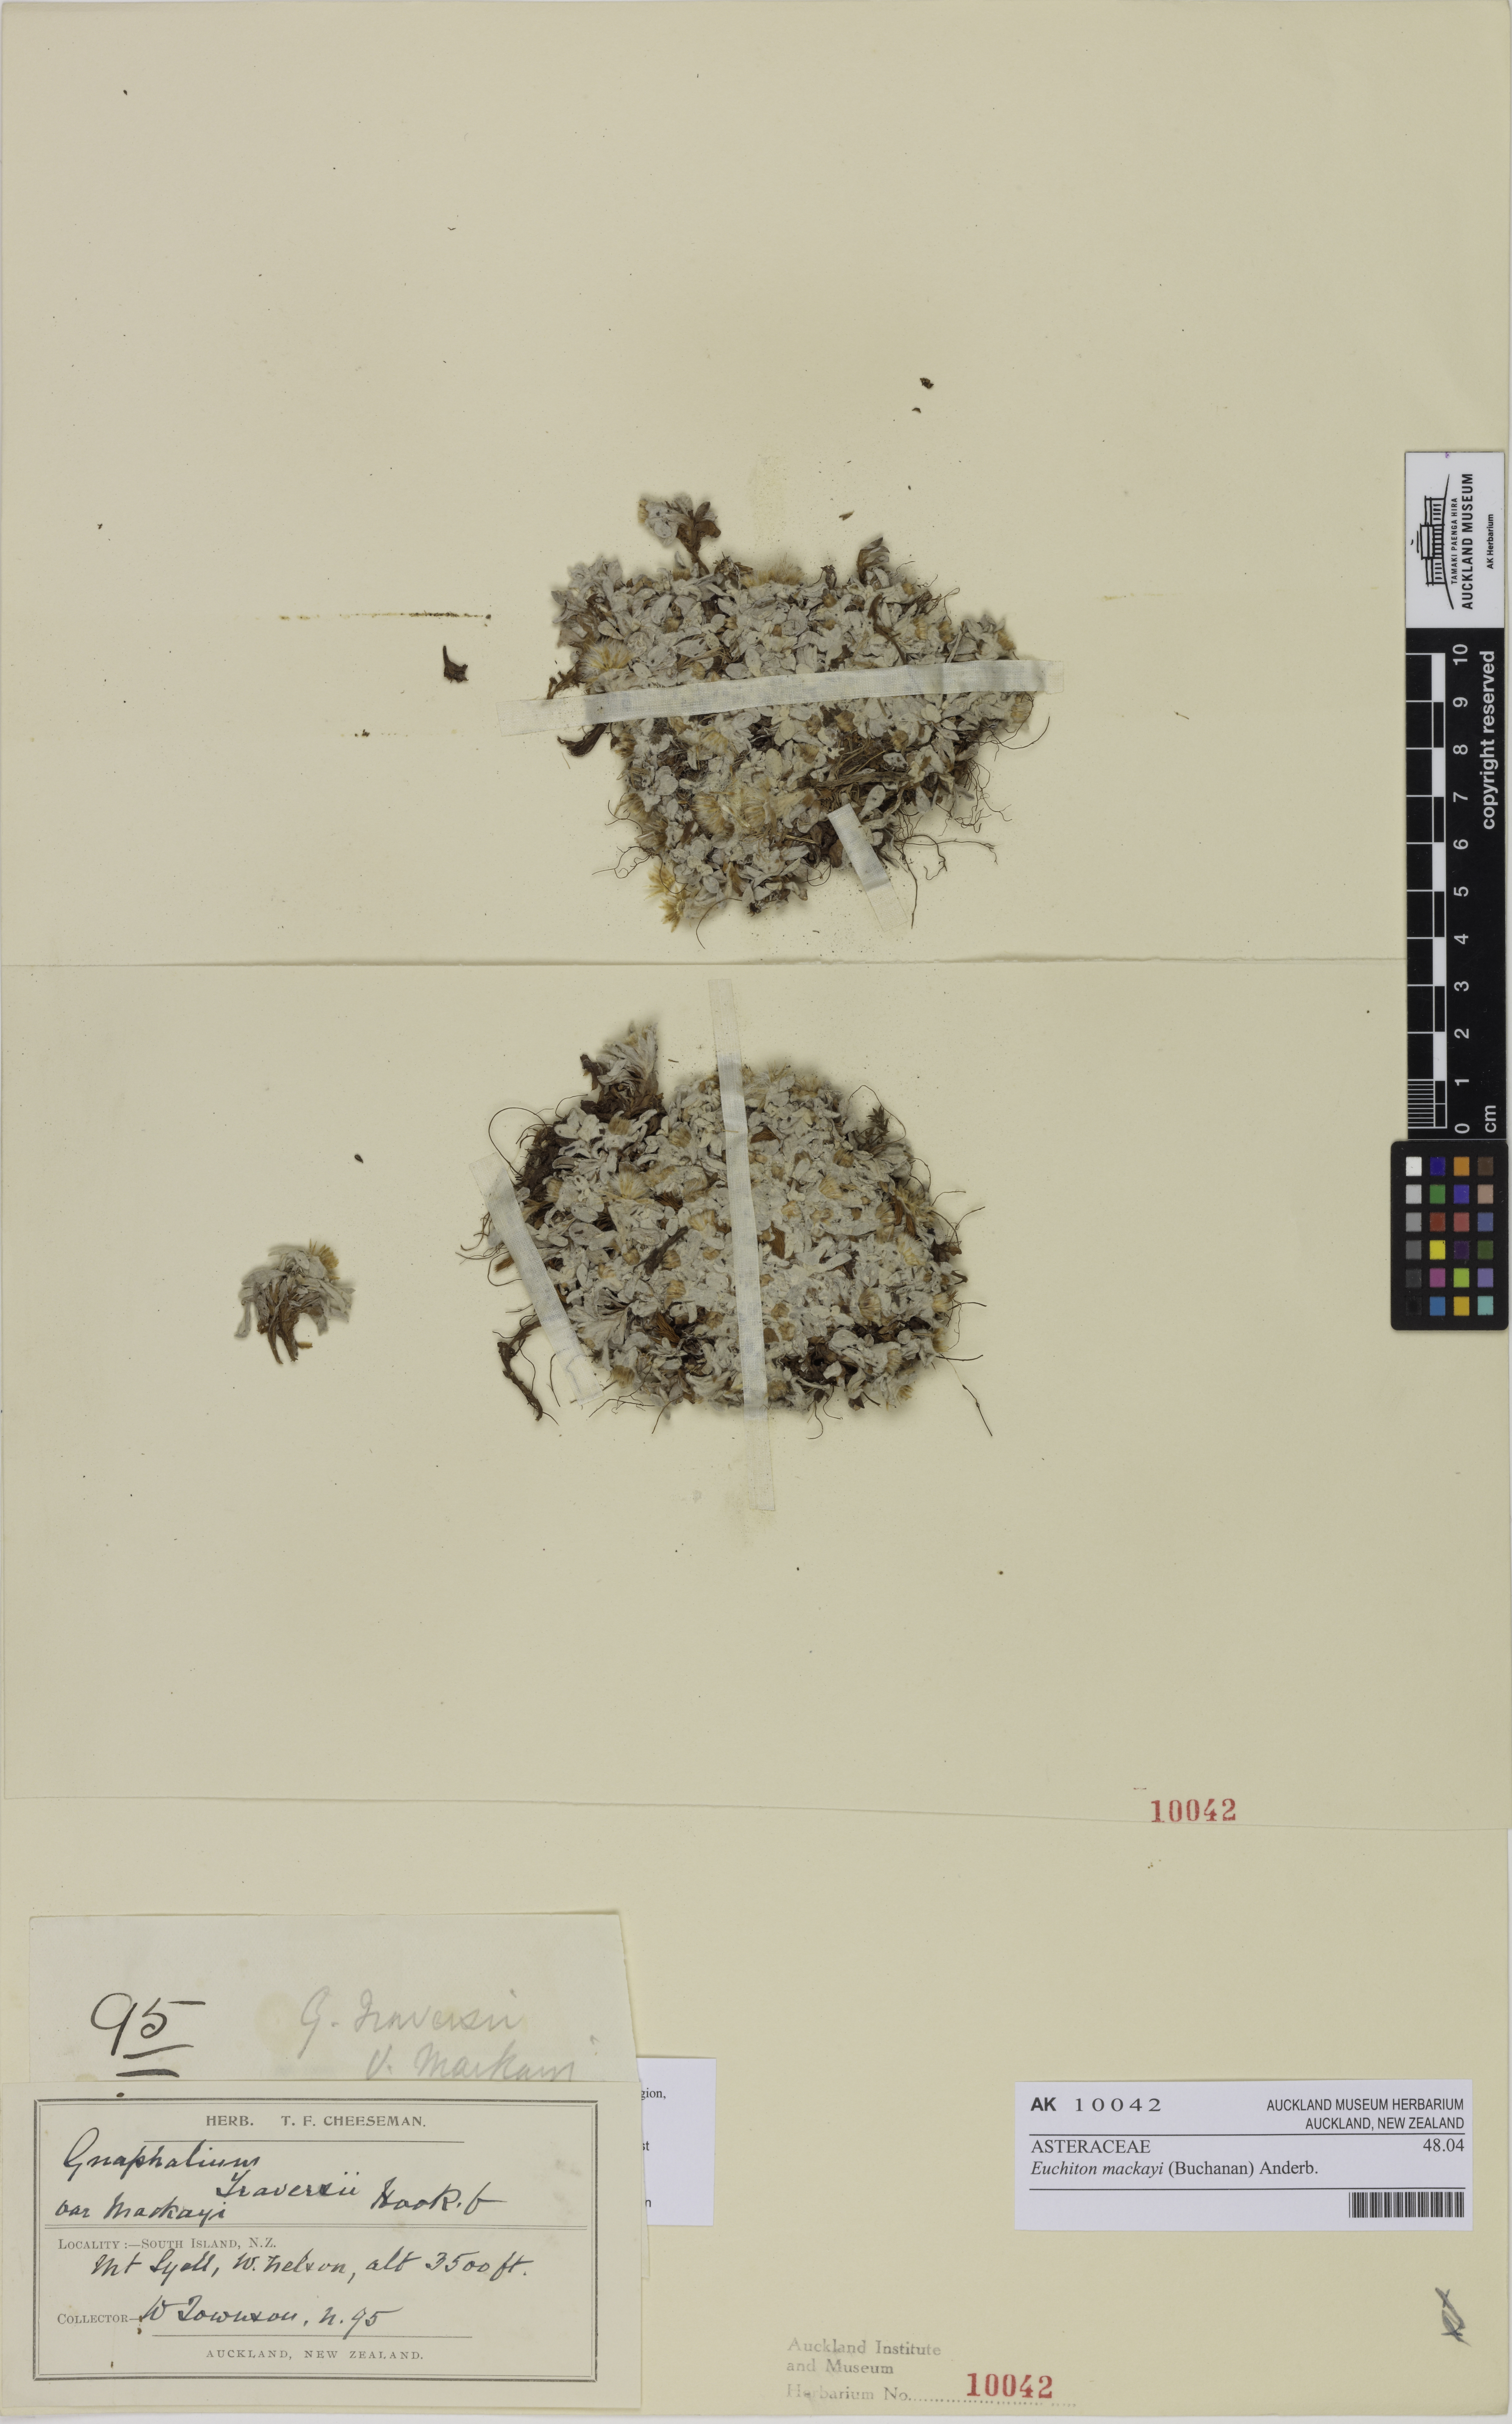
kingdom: Plantae
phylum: Tracheophyta
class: Magnoliopsida
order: Asterales
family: Asteraceae
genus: Argyrotegium
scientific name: Argyrotegium mackayi
